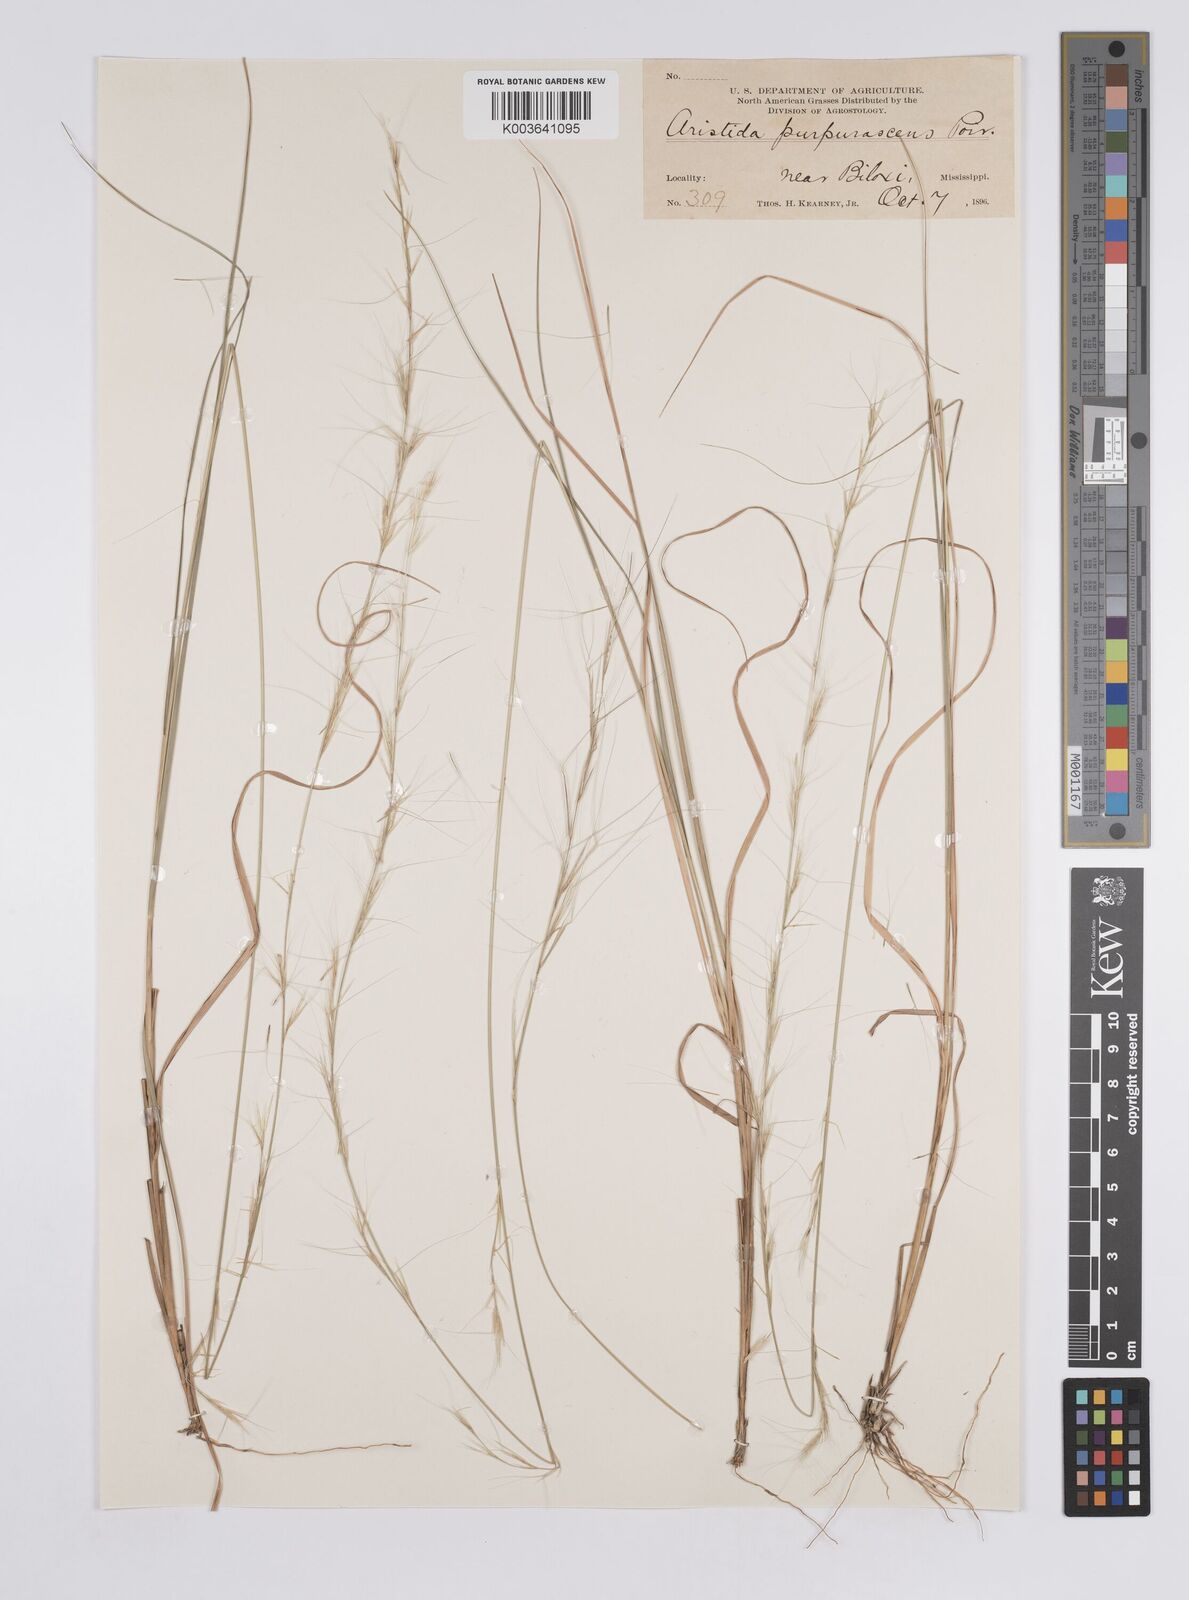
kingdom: Plantae
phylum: Tracheophyta
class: Liliopsida
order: Poales
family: Poaceae
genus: Aristida
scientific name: Aristida purpurascens
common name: Arrow-feather
